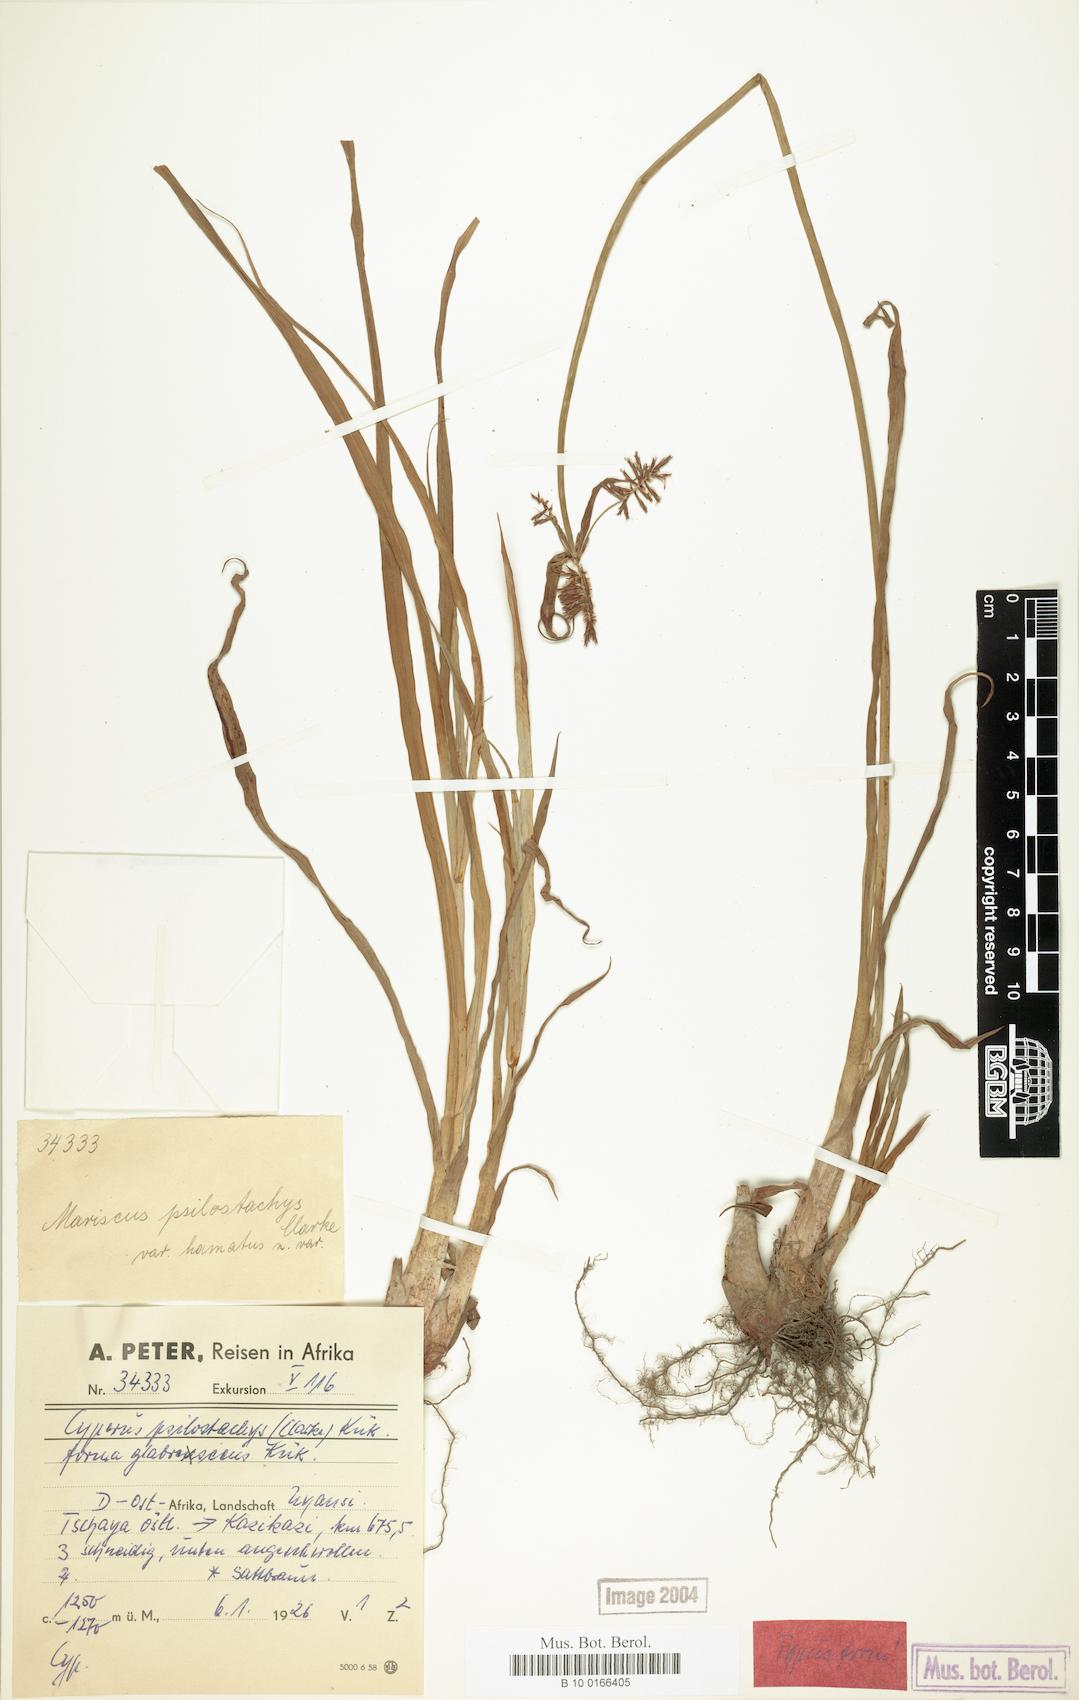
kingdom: Plantae
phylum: Tracheophyta
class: Liliopsida
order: Poales
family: Cyperaceae
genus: Cyperus
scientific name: Cyperus trigonellus
